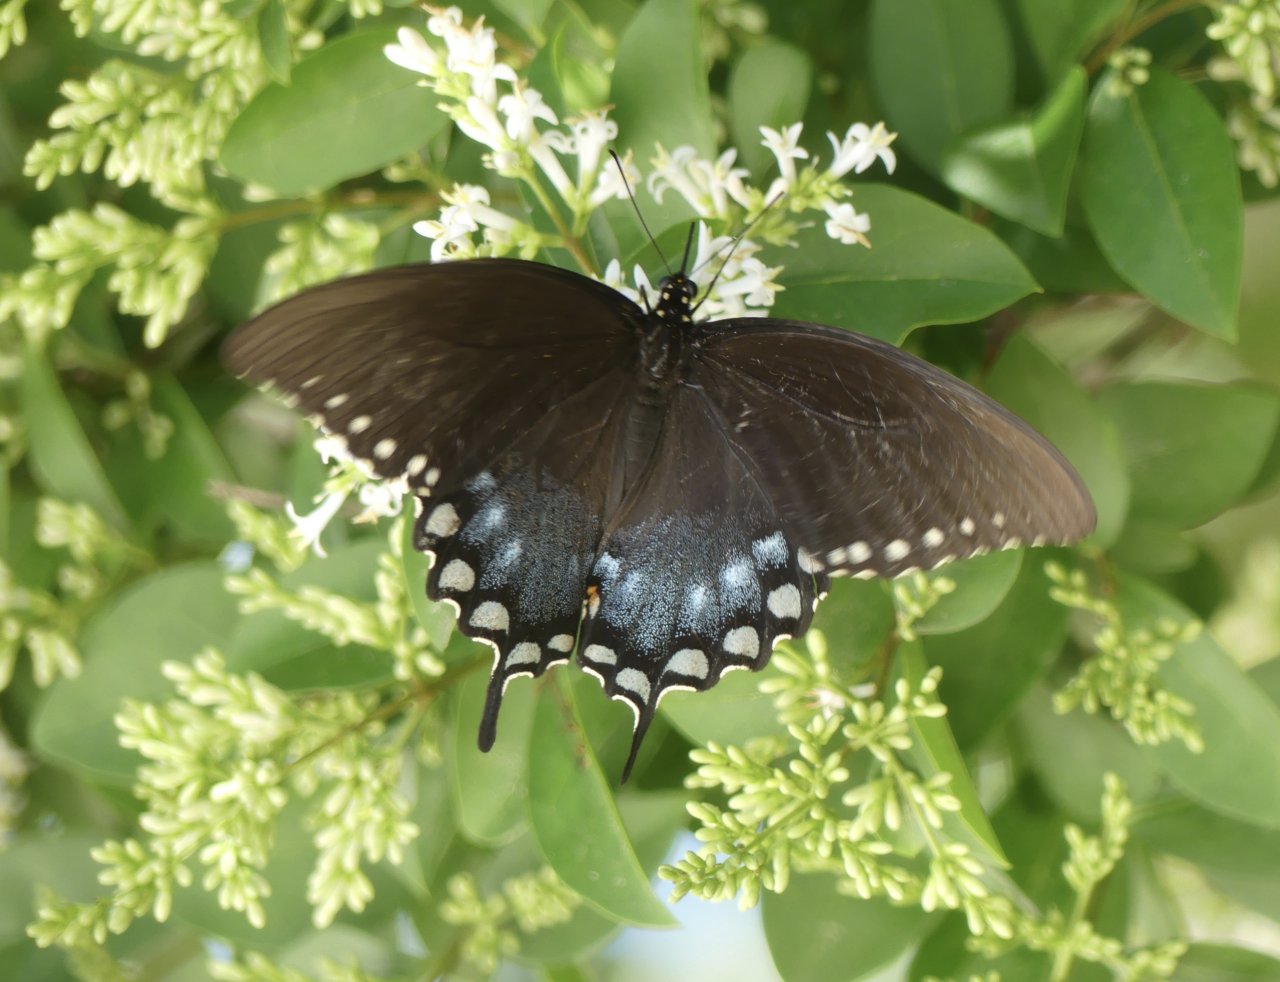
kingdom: Animalia
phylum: Arthropoda
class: Insecta
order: Lepidoptera
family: Papilionidae
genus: Pterourus
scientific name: Pterourus troilus
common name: Spicebush Swallowtail
